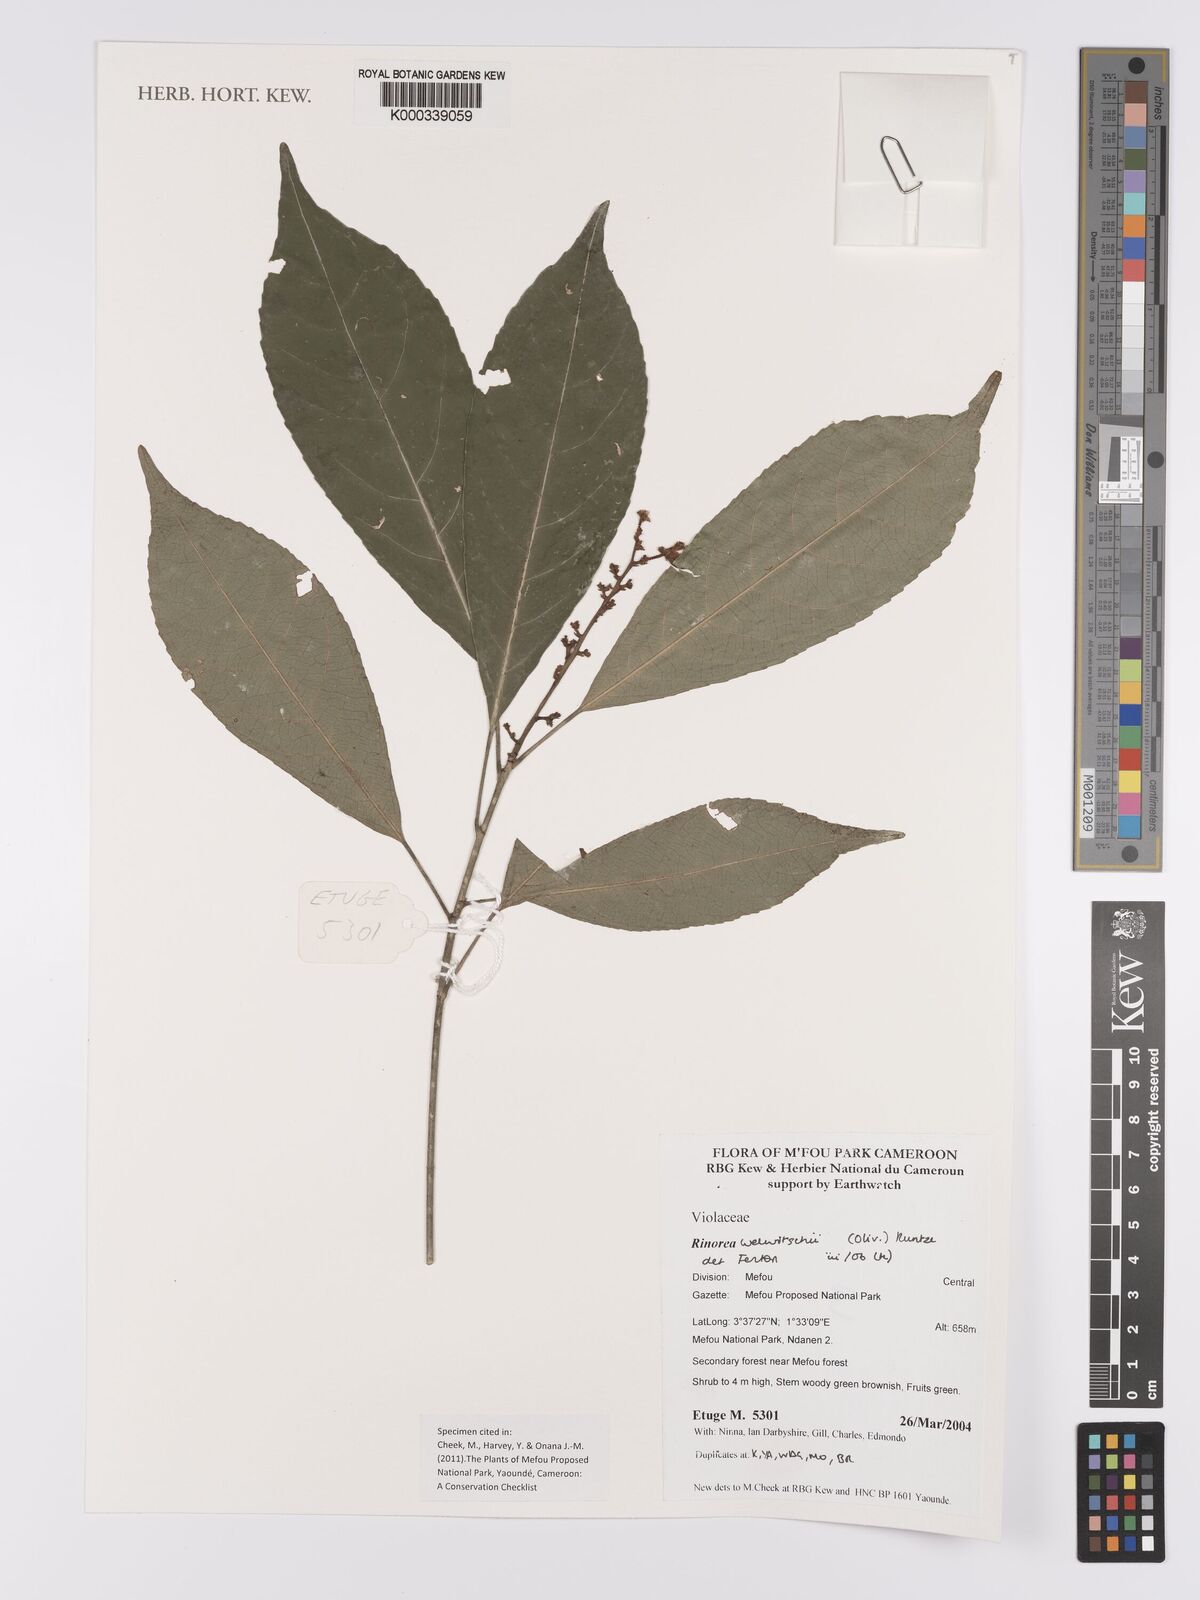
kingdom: Plantae
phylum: Tracheophyta
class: Magnoliopsida
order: Malpighiales
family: Violaceae
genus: Rinorea
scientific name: Rinorea welwitschii
